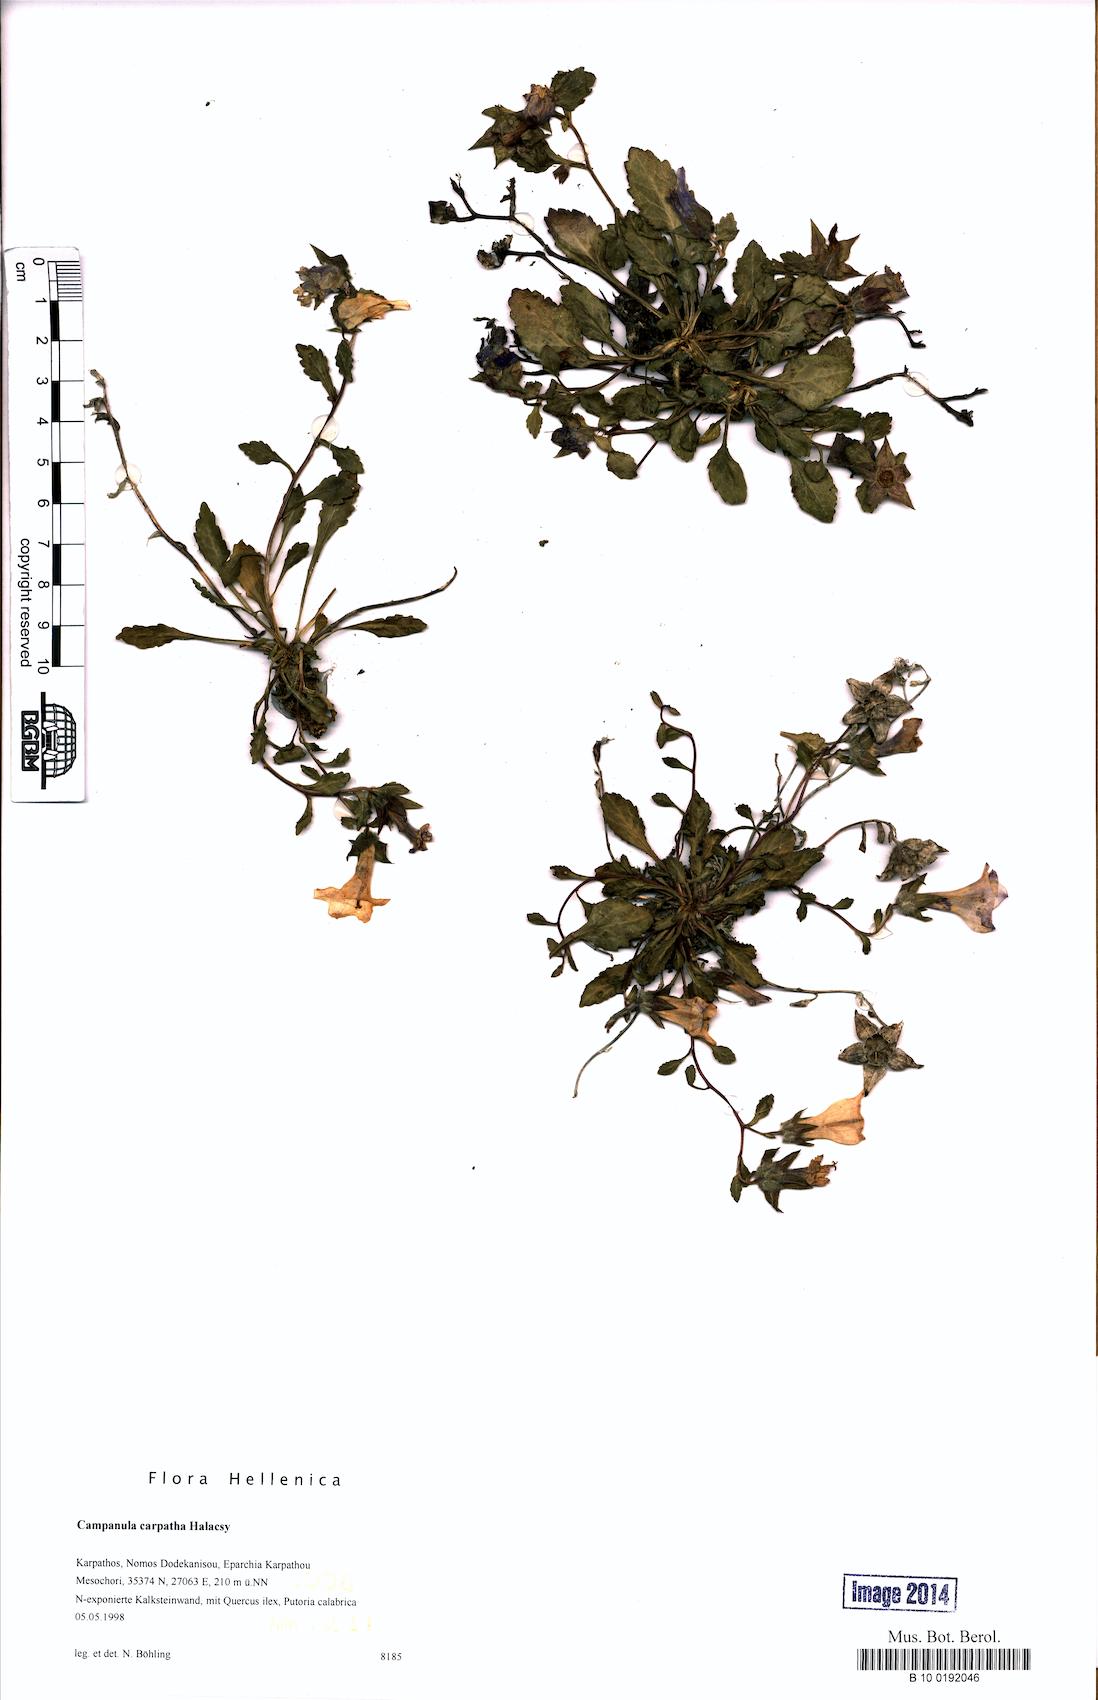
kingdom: Plantae
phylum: Tracheophyta
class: Magnoliopsida
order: Asterales
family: Campanulaceae
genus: Campanula
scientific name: Campanula carpatha
